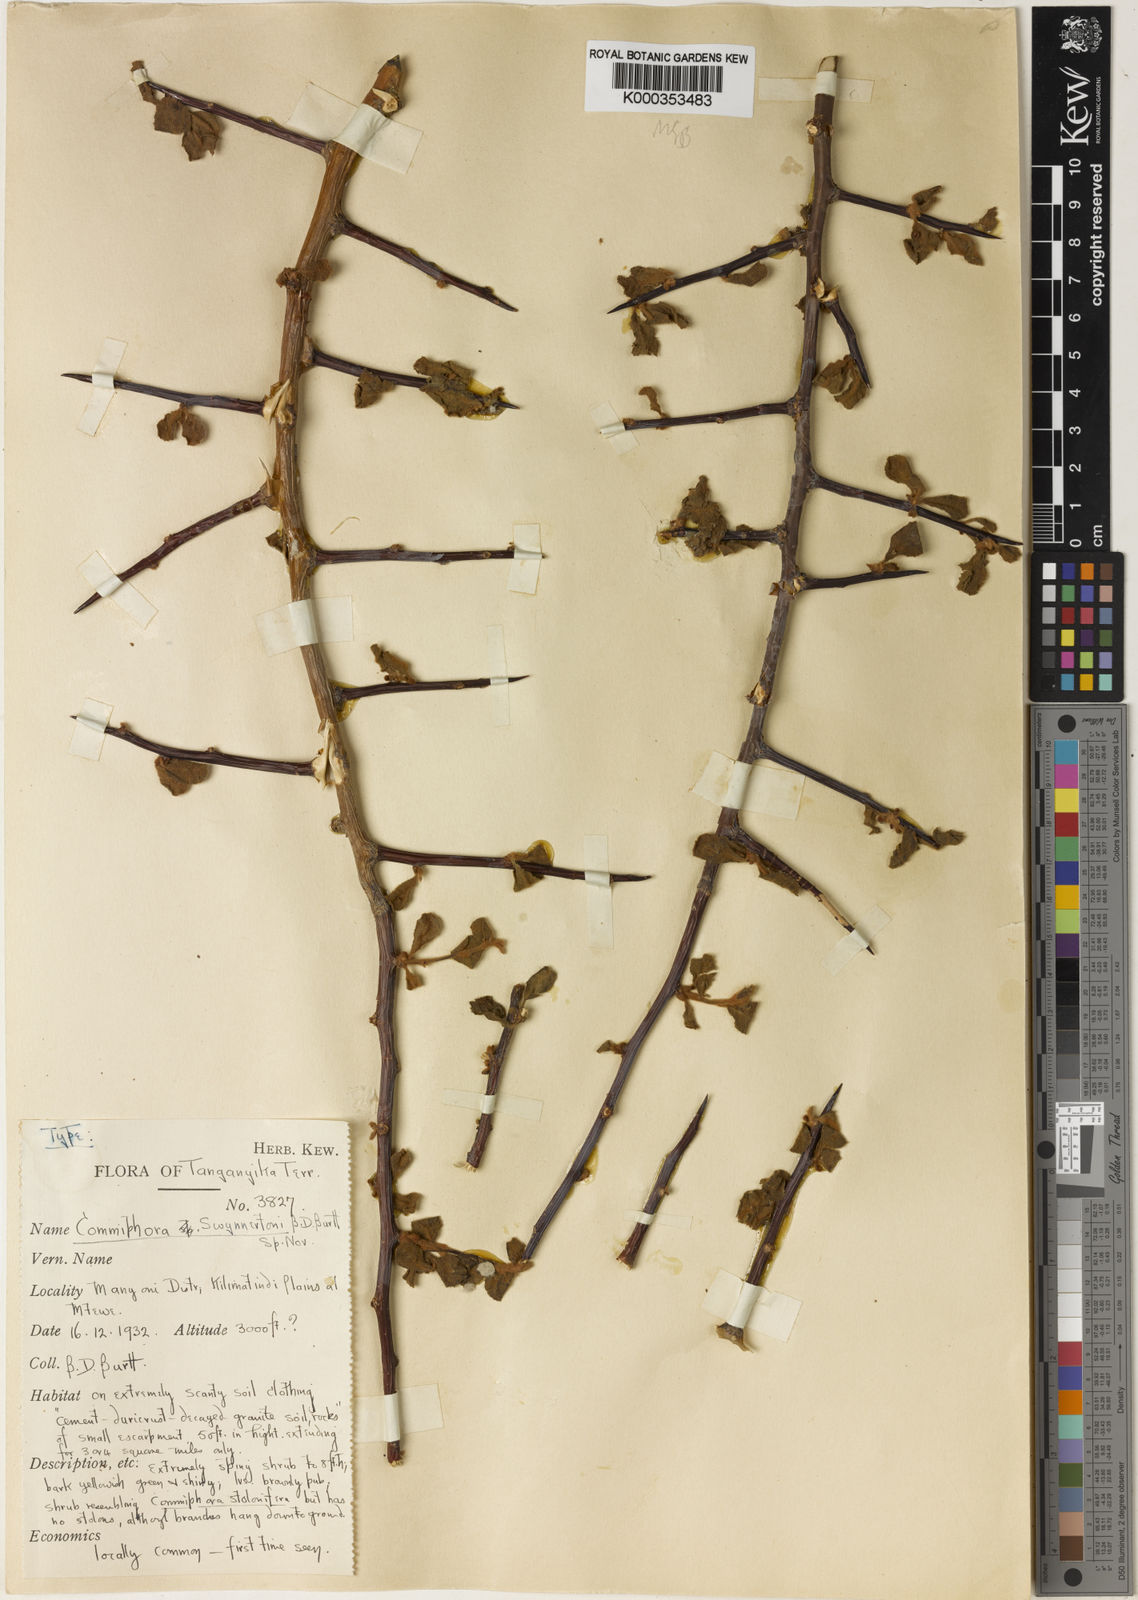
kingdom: Plantae
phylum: Tracheophyta
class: Magnoliopsida
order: Sapindales
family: Burseraceae
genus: Commiphora
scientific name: Commiphora swynnertonii
